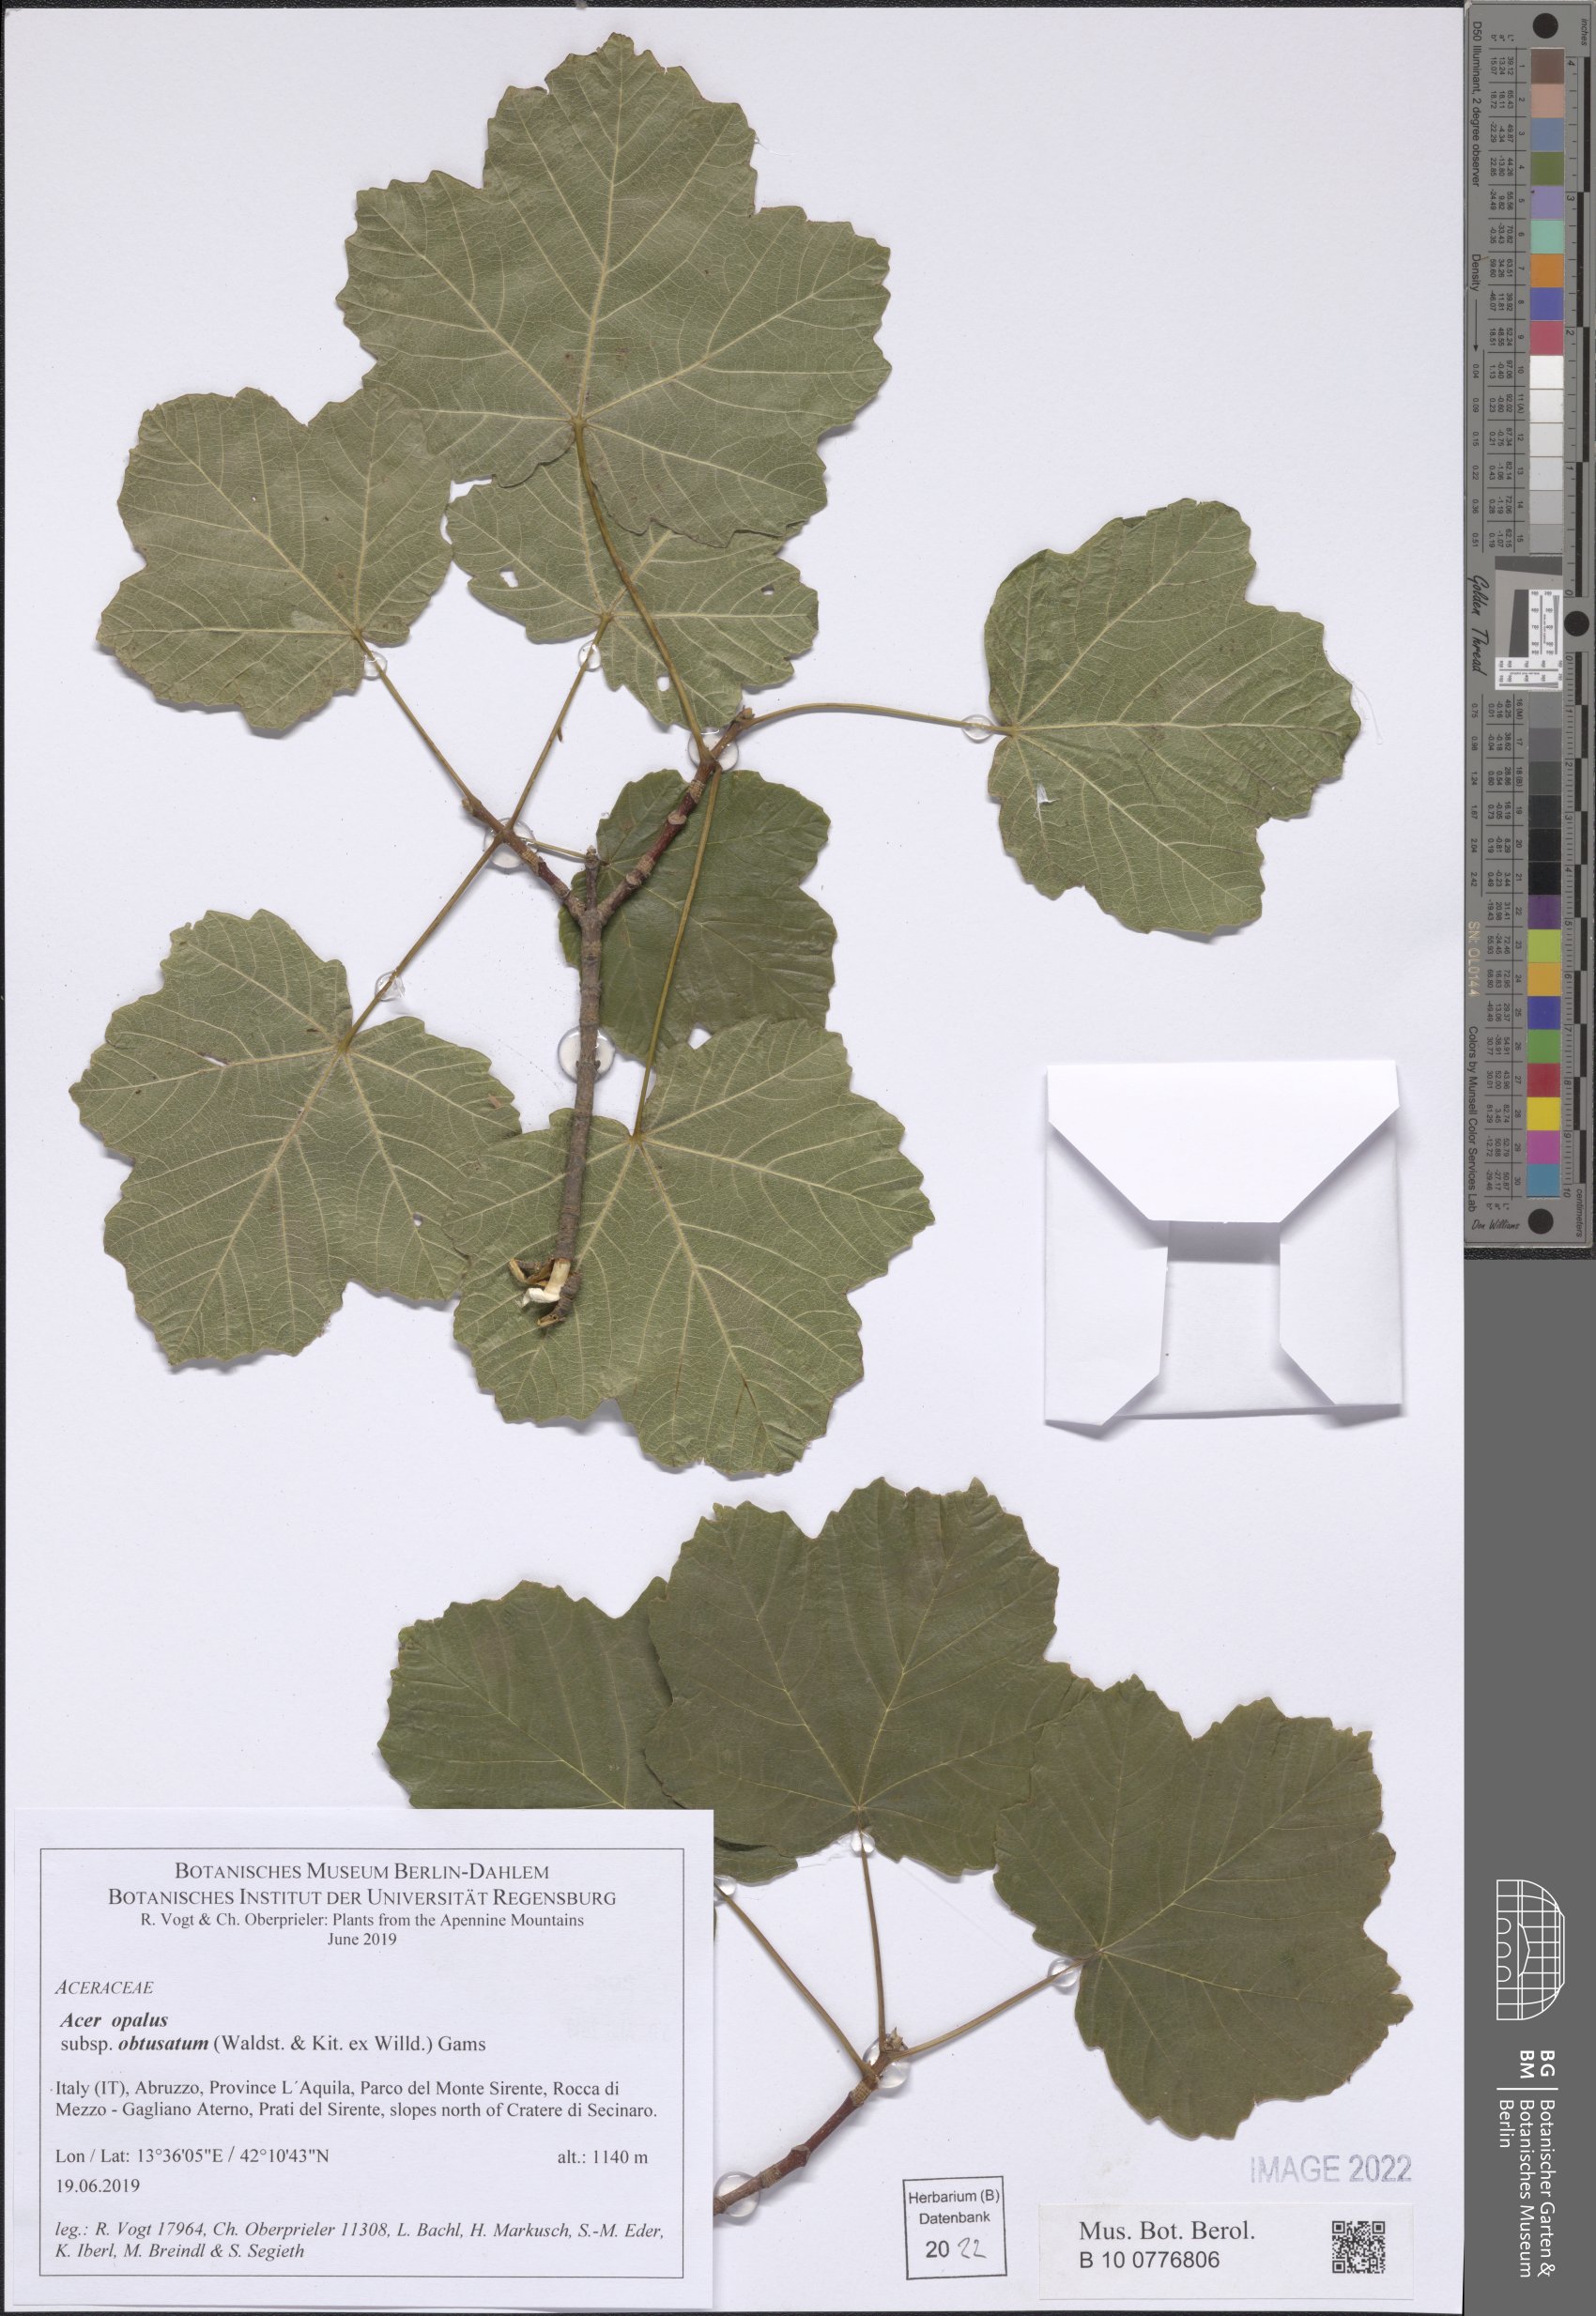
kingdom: Plantae
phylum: Tracheophyta
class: Magnoliopsida
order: Sapindales
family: Sapindaceae
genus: Acer
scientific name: Acer obtusatum
